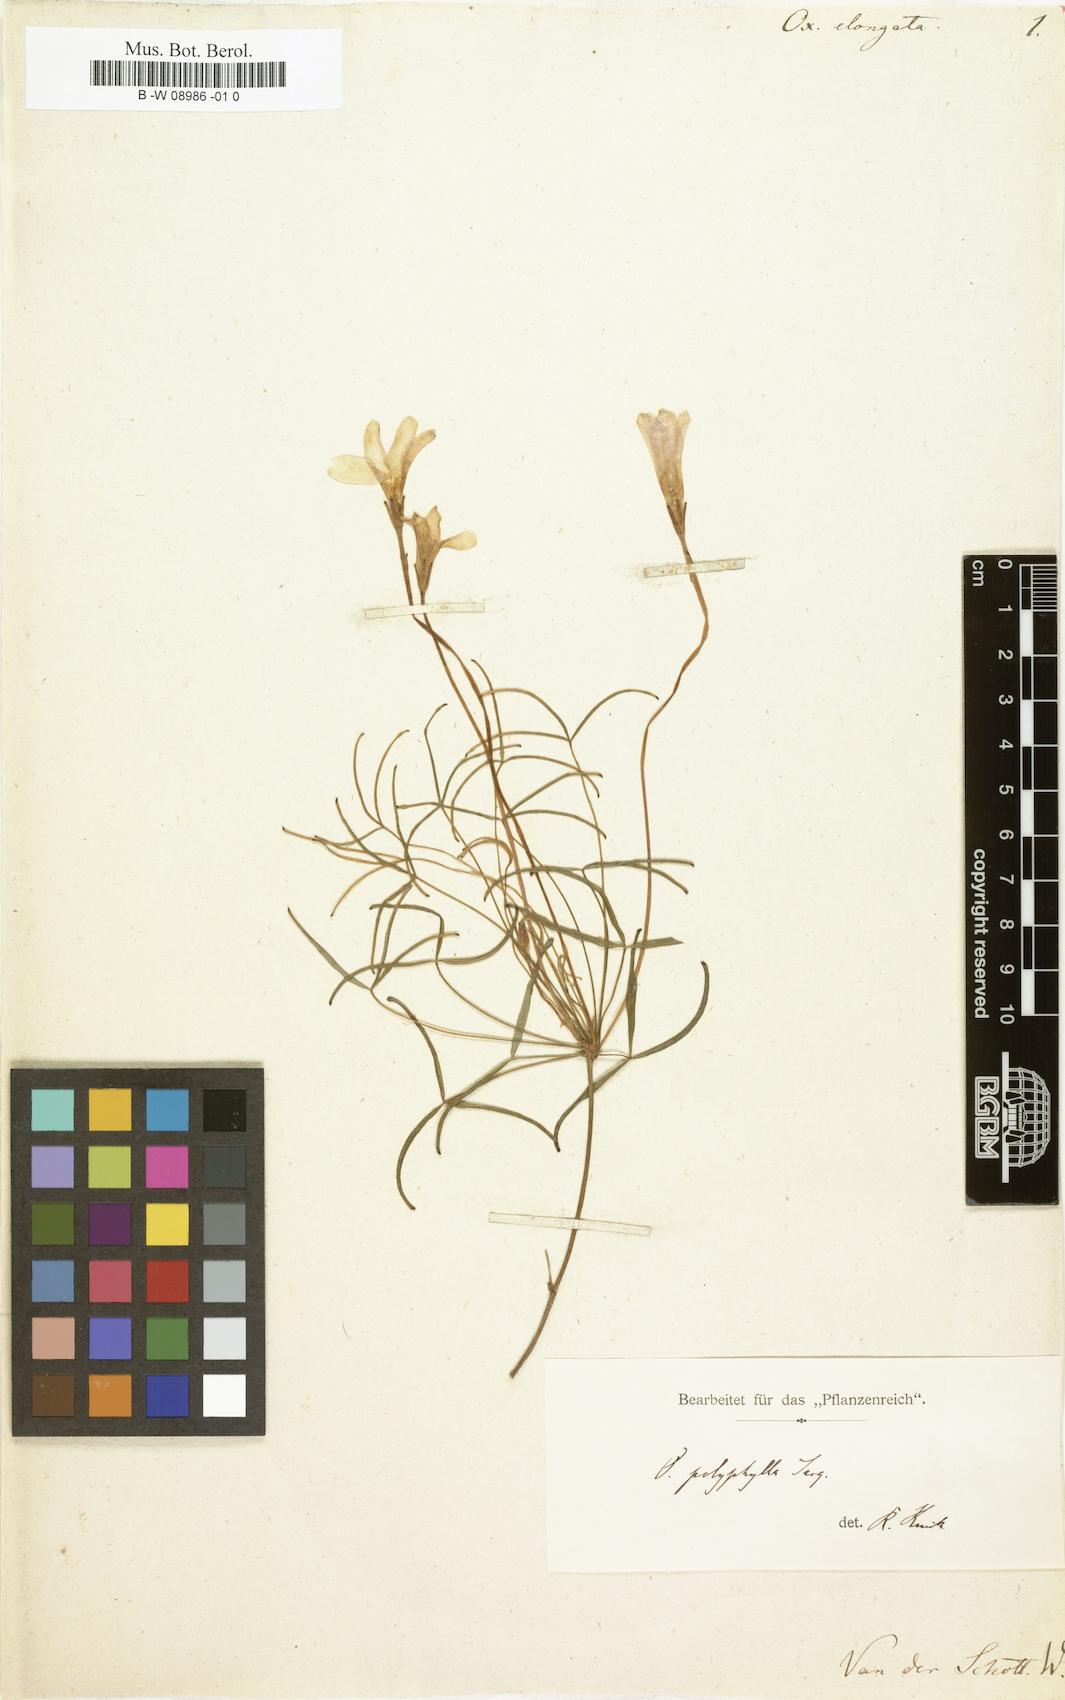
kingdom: Plantae
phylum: Tracheophyta
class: Magnoliopsida
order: Oxalidales
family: Oxalidaceae
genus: Oxalis
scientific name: Oxalis
